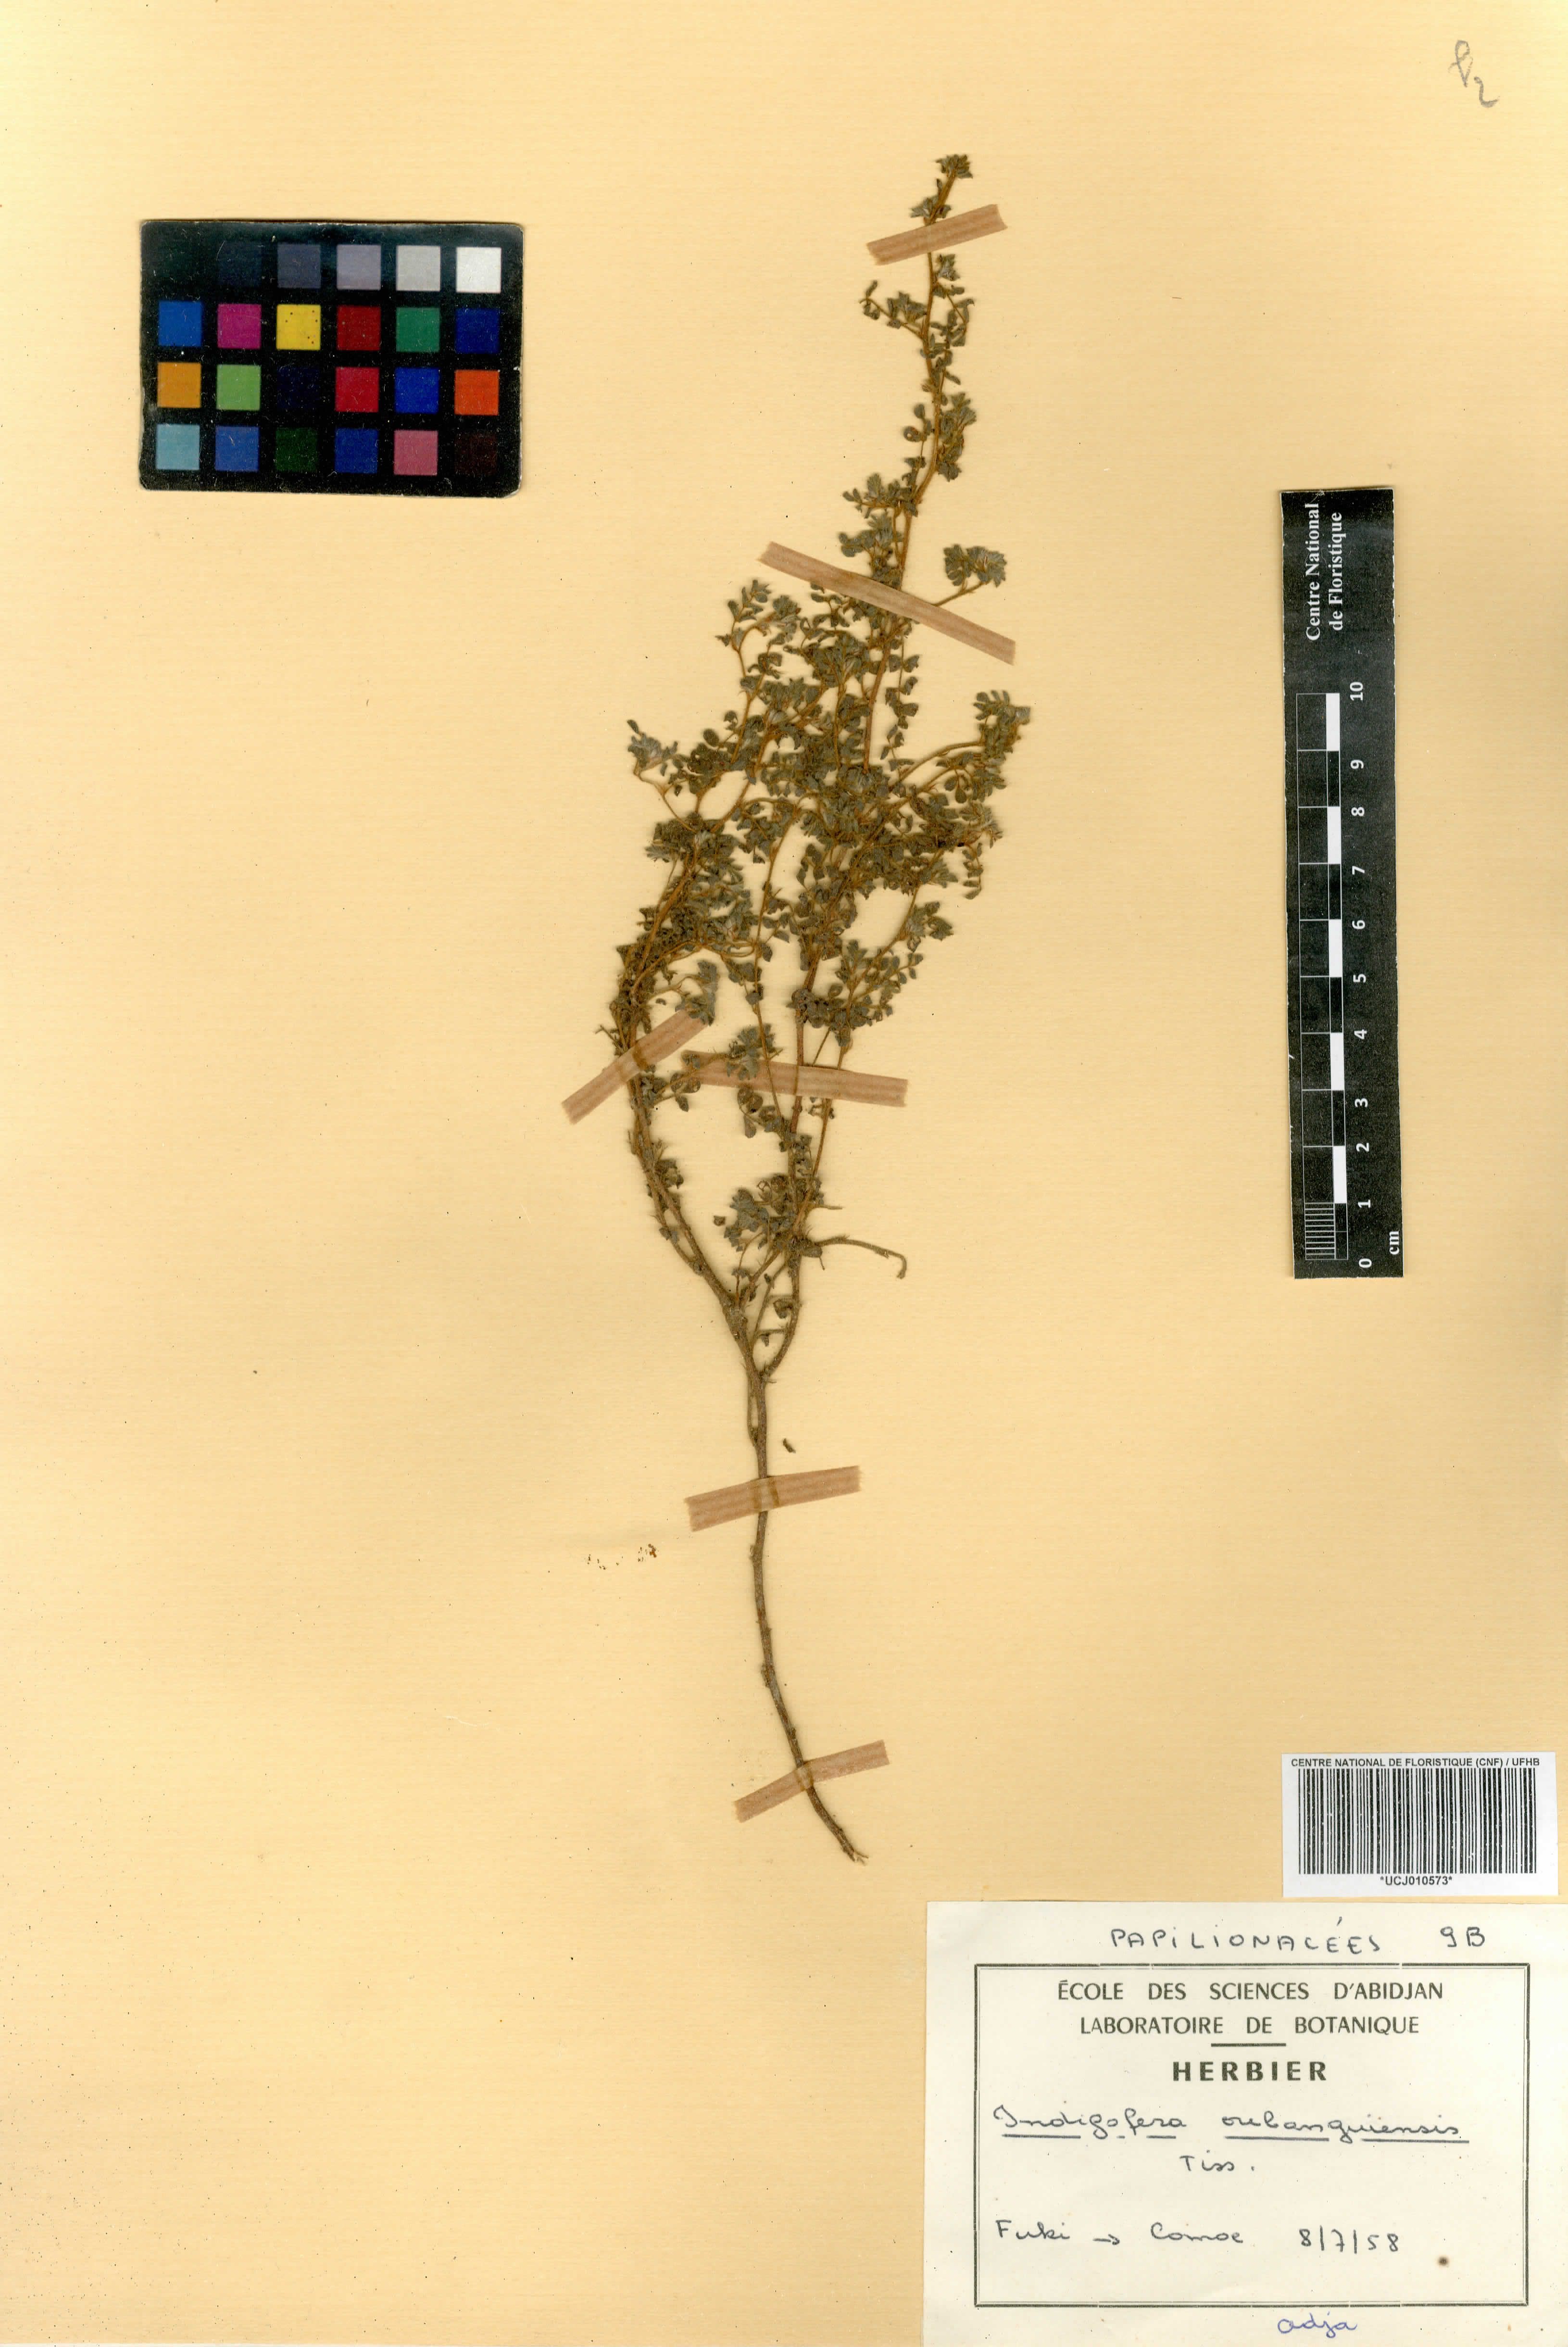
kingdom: Plantae
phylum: Tracheophyta
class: Magnoliopsida
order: Fabales
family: Fabaceae
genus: Indigofera
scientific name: Indigofera oubanguiensis
